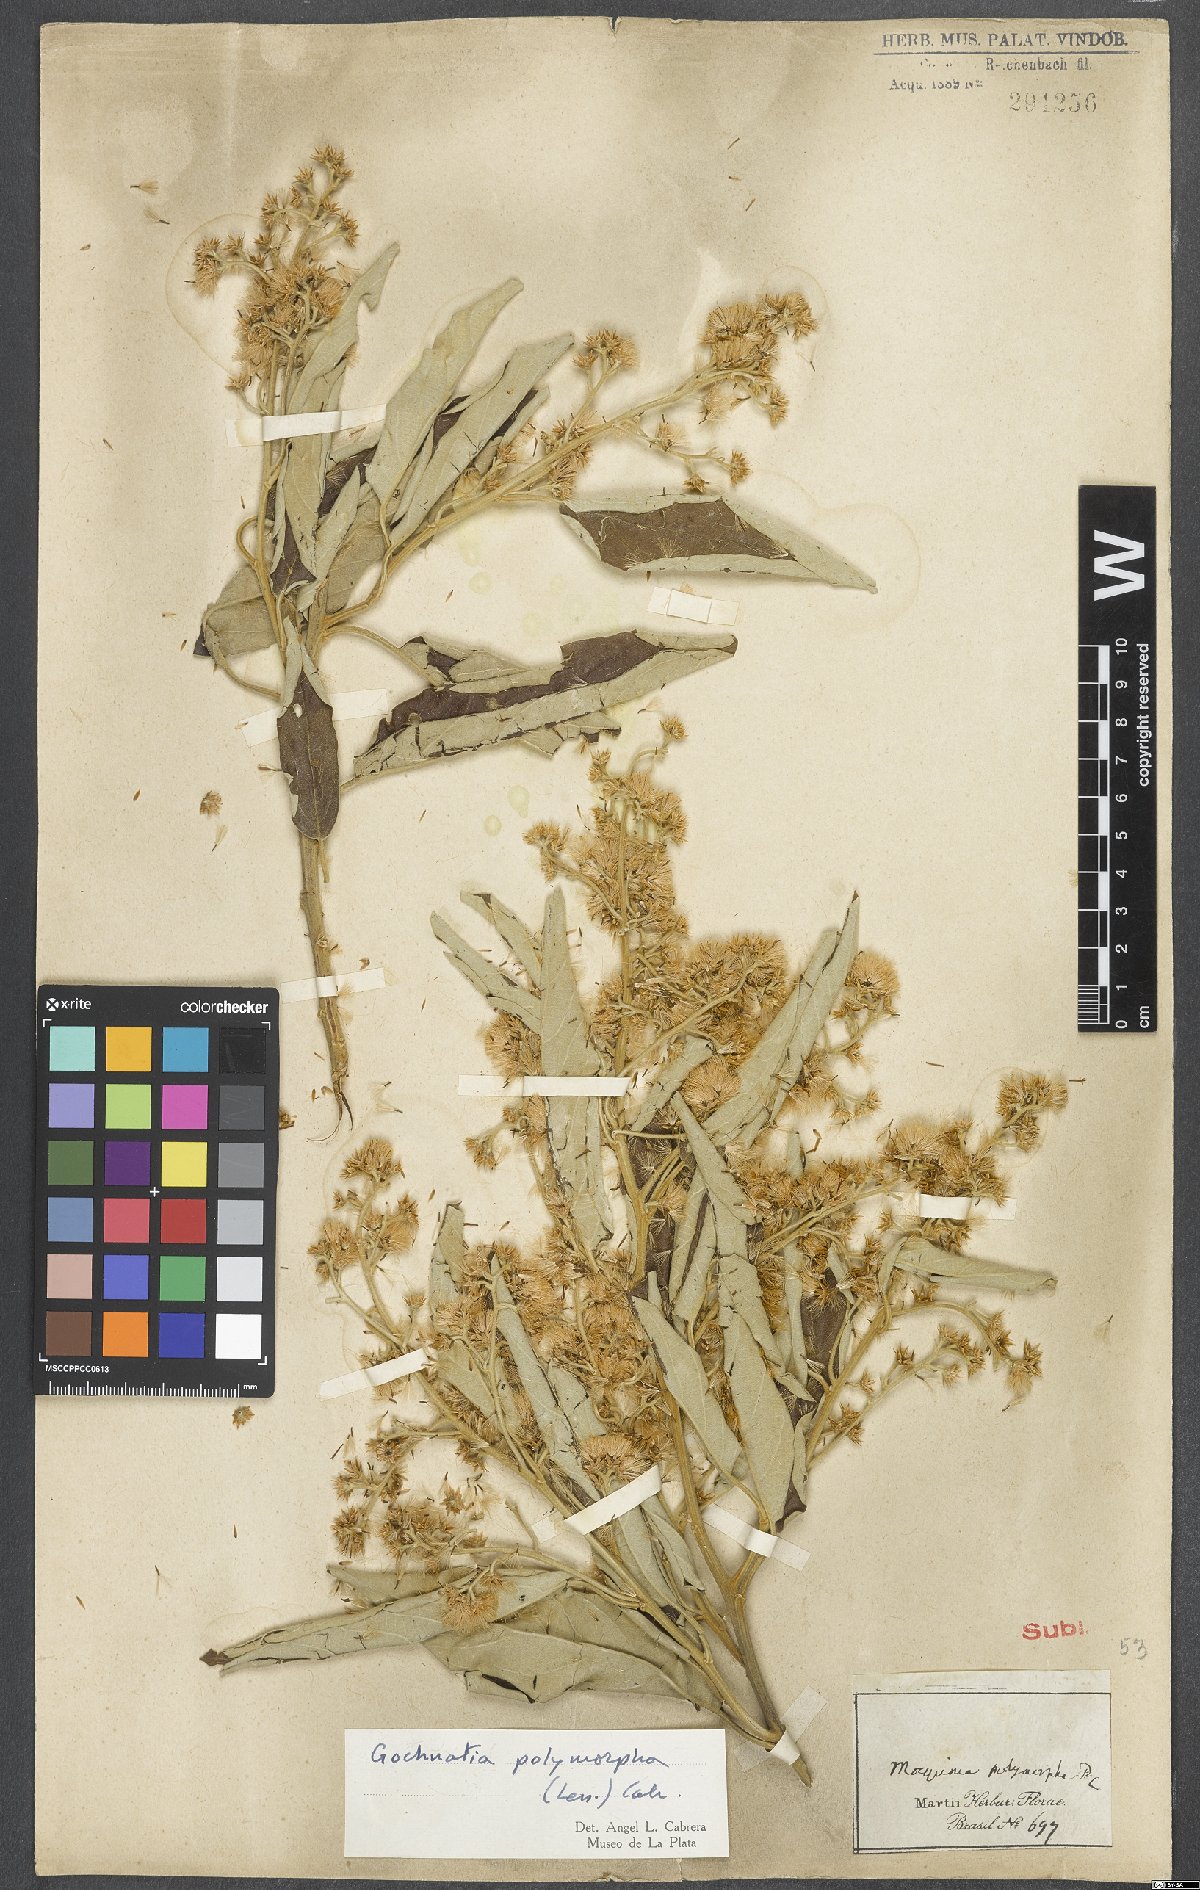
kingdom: Plantae
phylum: Tracheophyta
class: Magnoliopsida
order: Asterales
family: Asteraceae
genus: Moquiniastrum
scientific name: Moquiniastrum polymorphum
